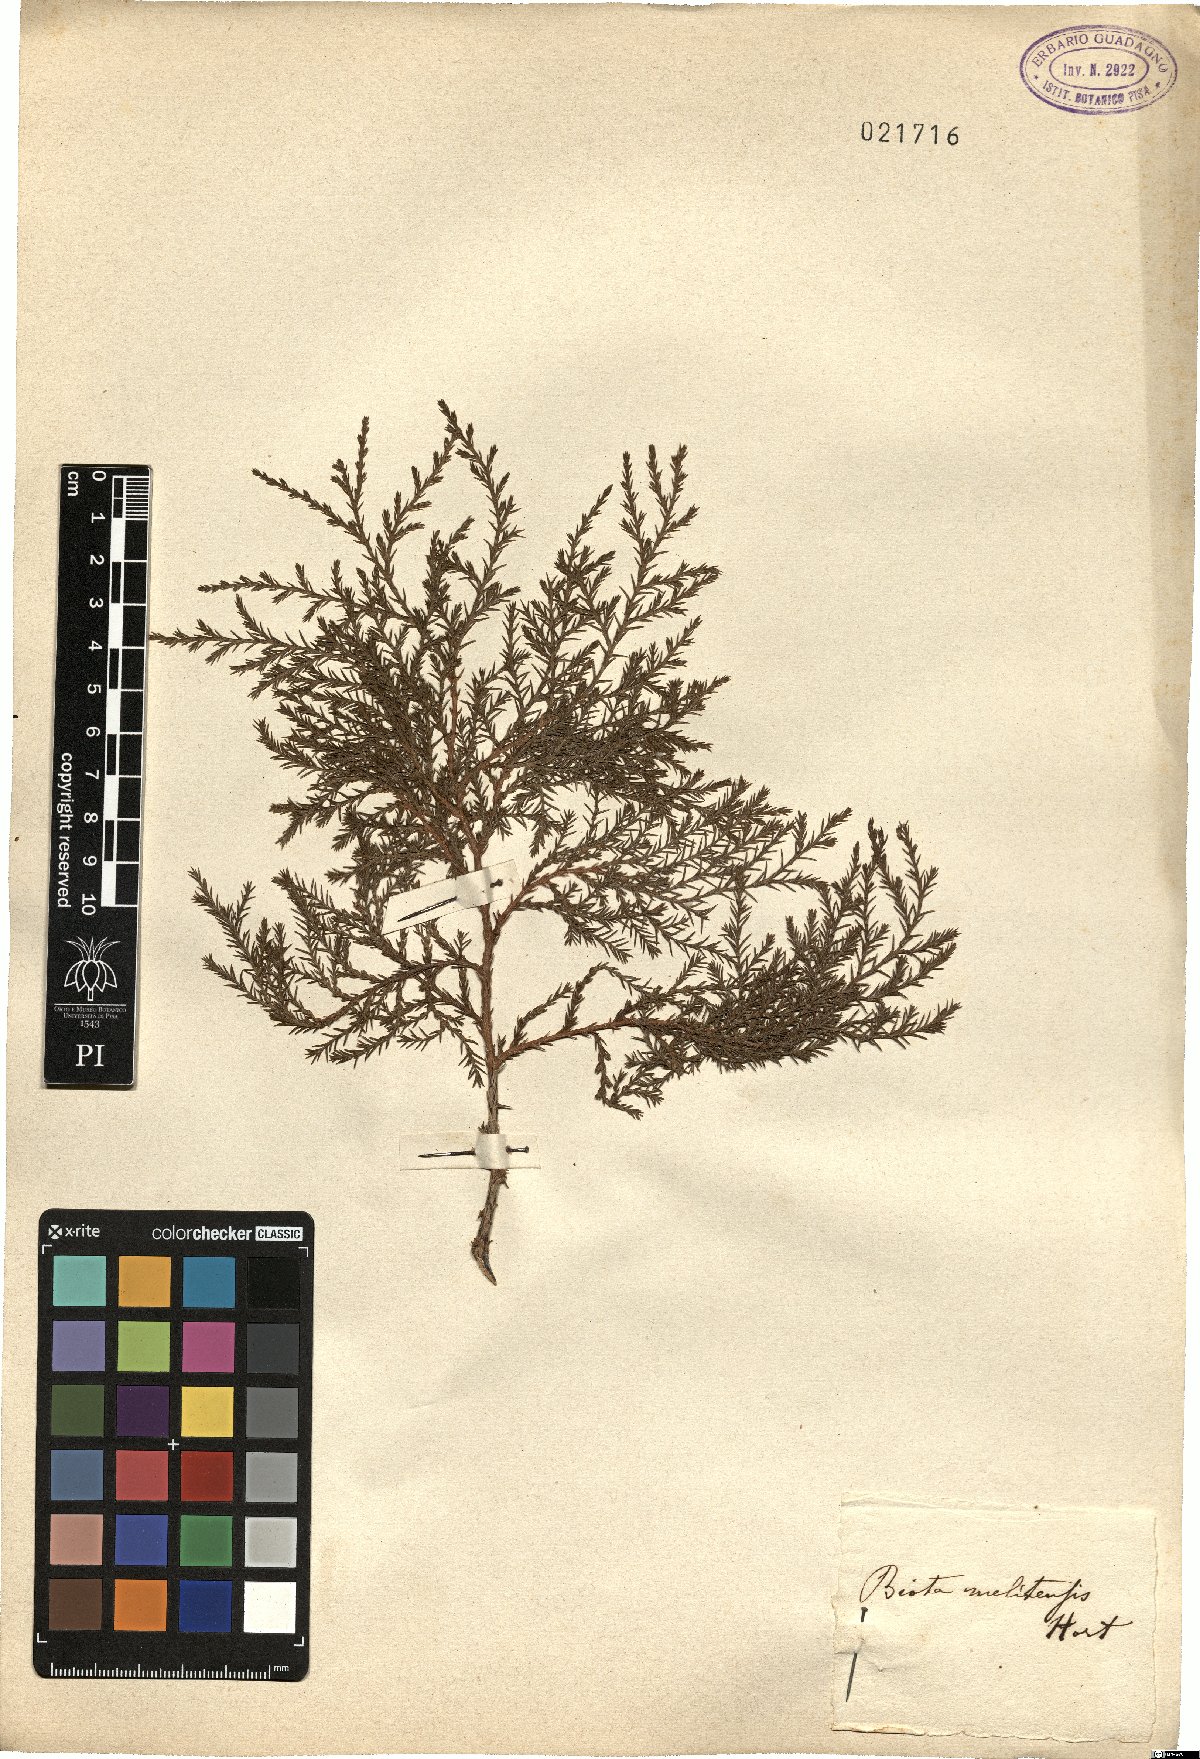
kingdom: Plantae
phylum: Tracheophyta
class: Pinopsida
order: Pinales
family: Cupressaceae
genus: Platycladus
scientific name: Platycladus
